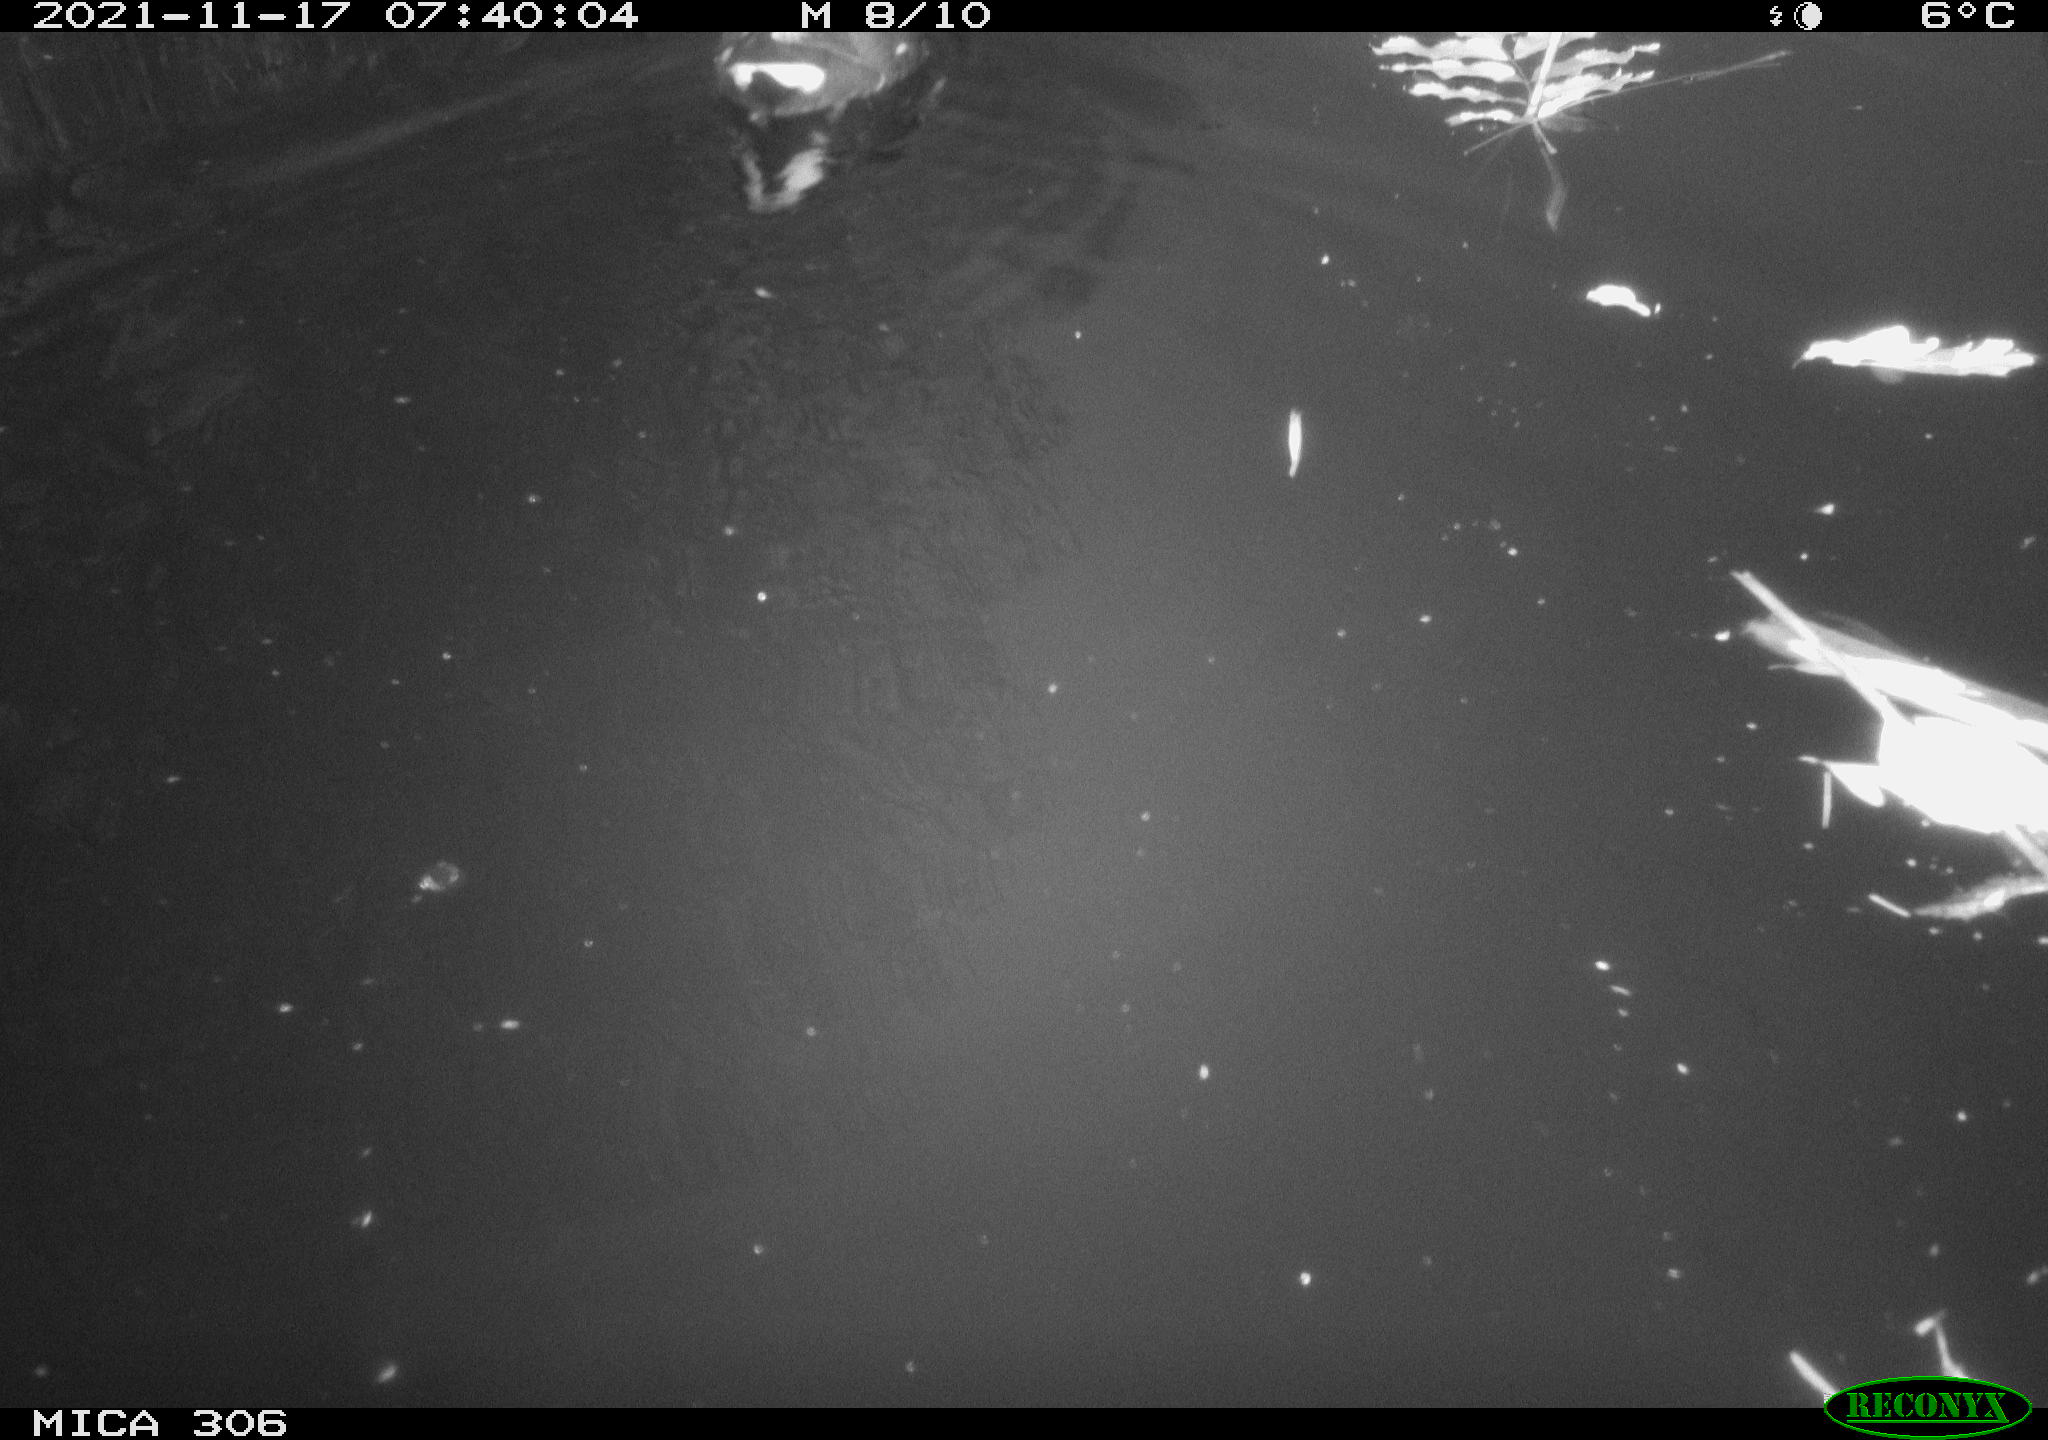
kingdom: Animalia
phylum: Chordata
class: Aves
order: Gruiformes
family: Rallidae
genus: Fulica
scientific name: Fulica atra
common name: Eurasian coot
